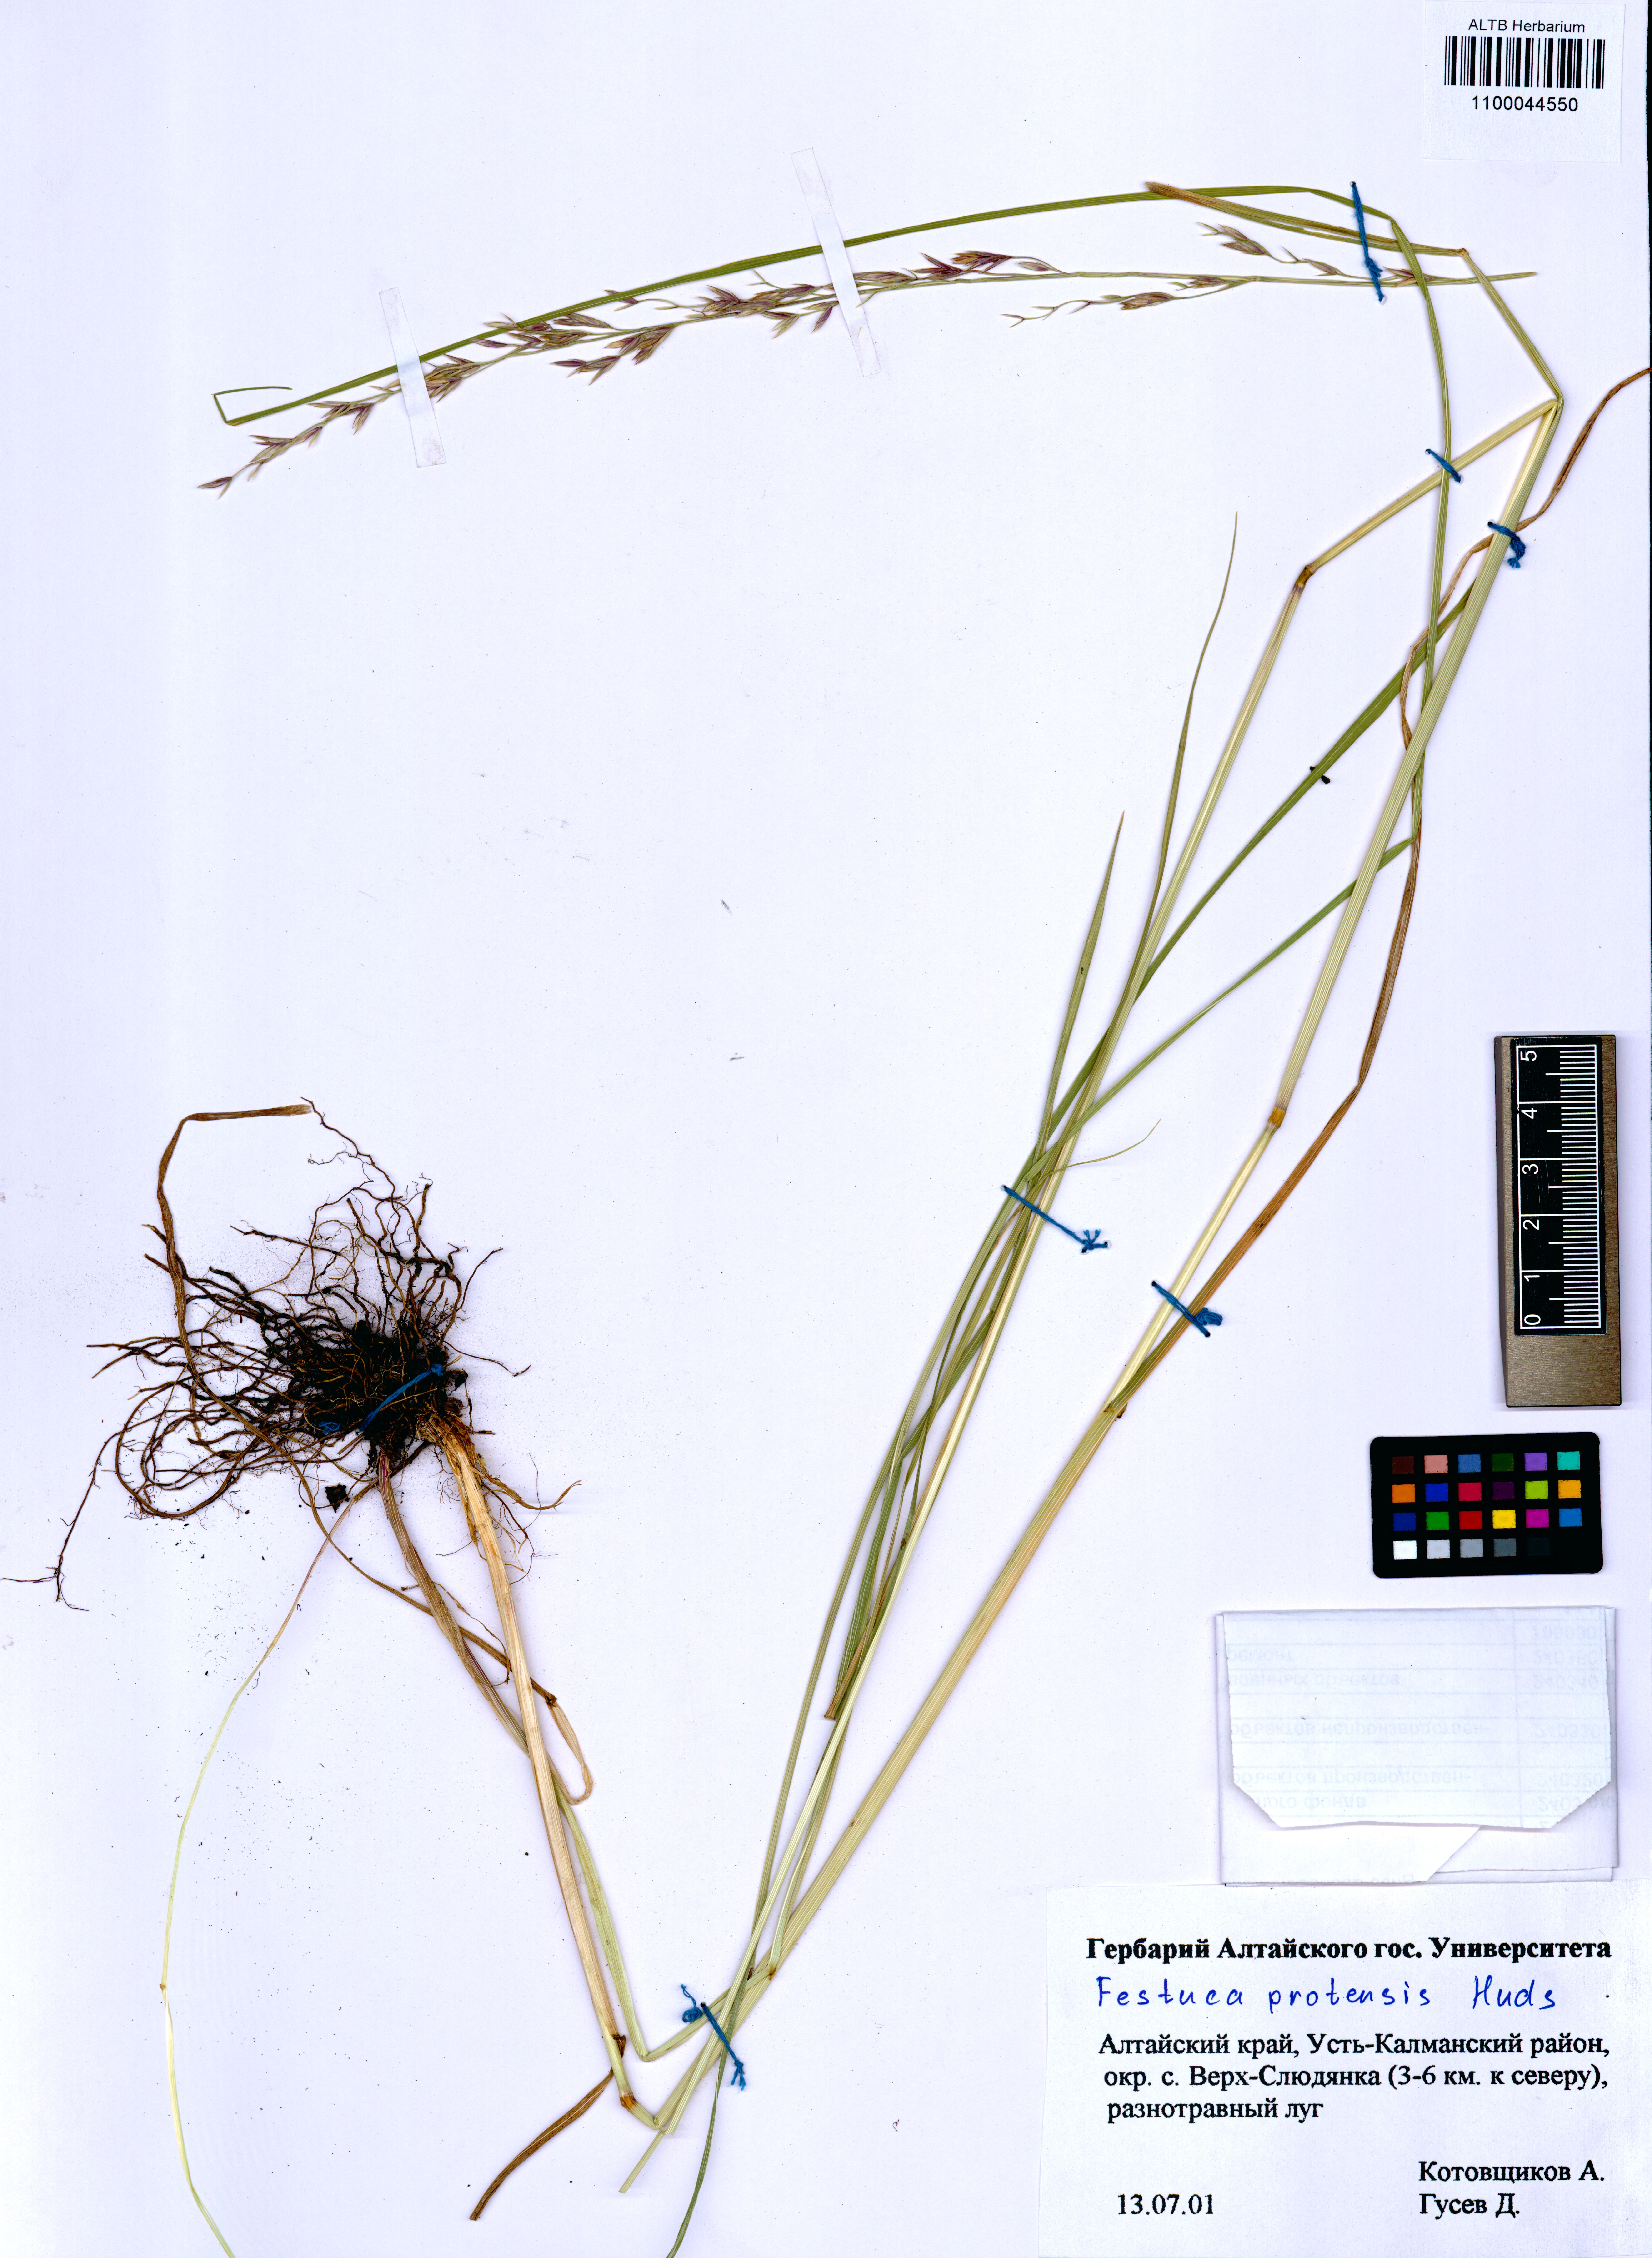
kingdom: Plantae
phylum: Tracheophyta
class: Liliopsida
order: Poales
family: Poaceae
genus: Lolium
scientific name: Lolium pratense
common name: Dover grass
